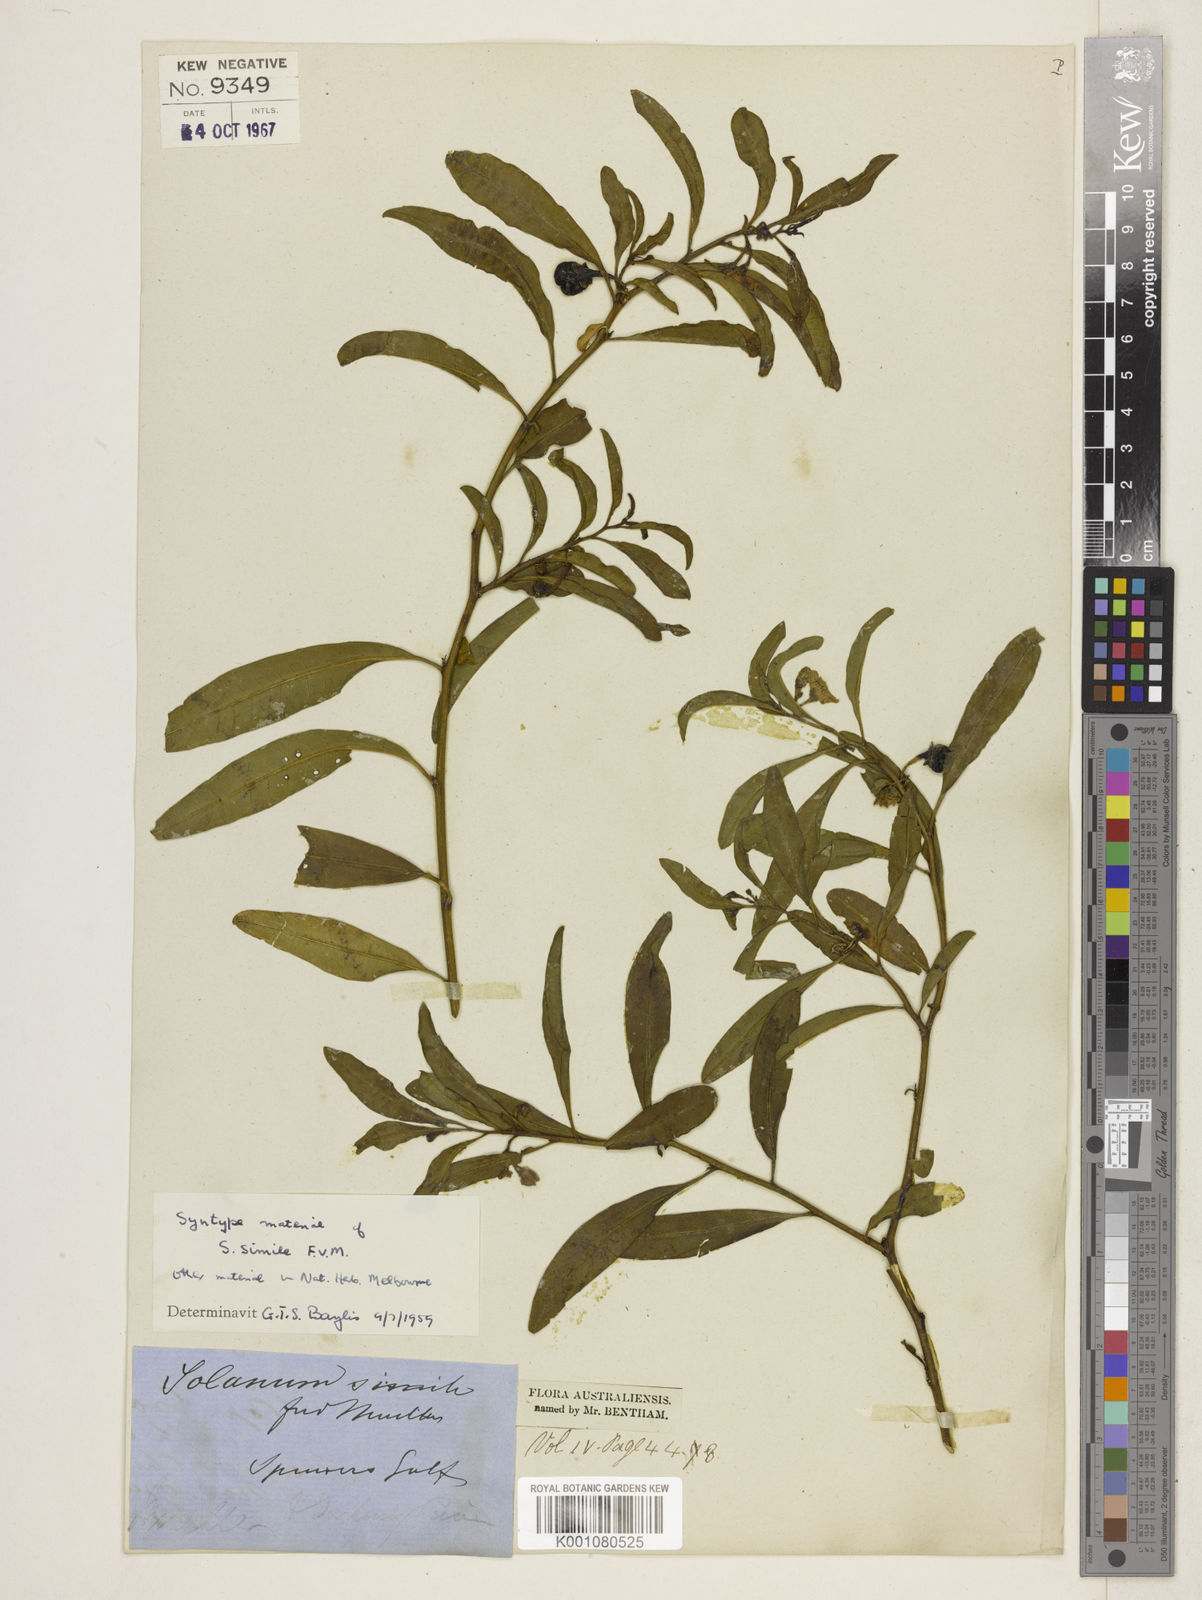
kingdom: Plantae
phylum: Tracheophyta
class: Magnoliopsida
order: Solanales
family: Solanaceae
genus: Solanum
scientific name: Solanum simile
